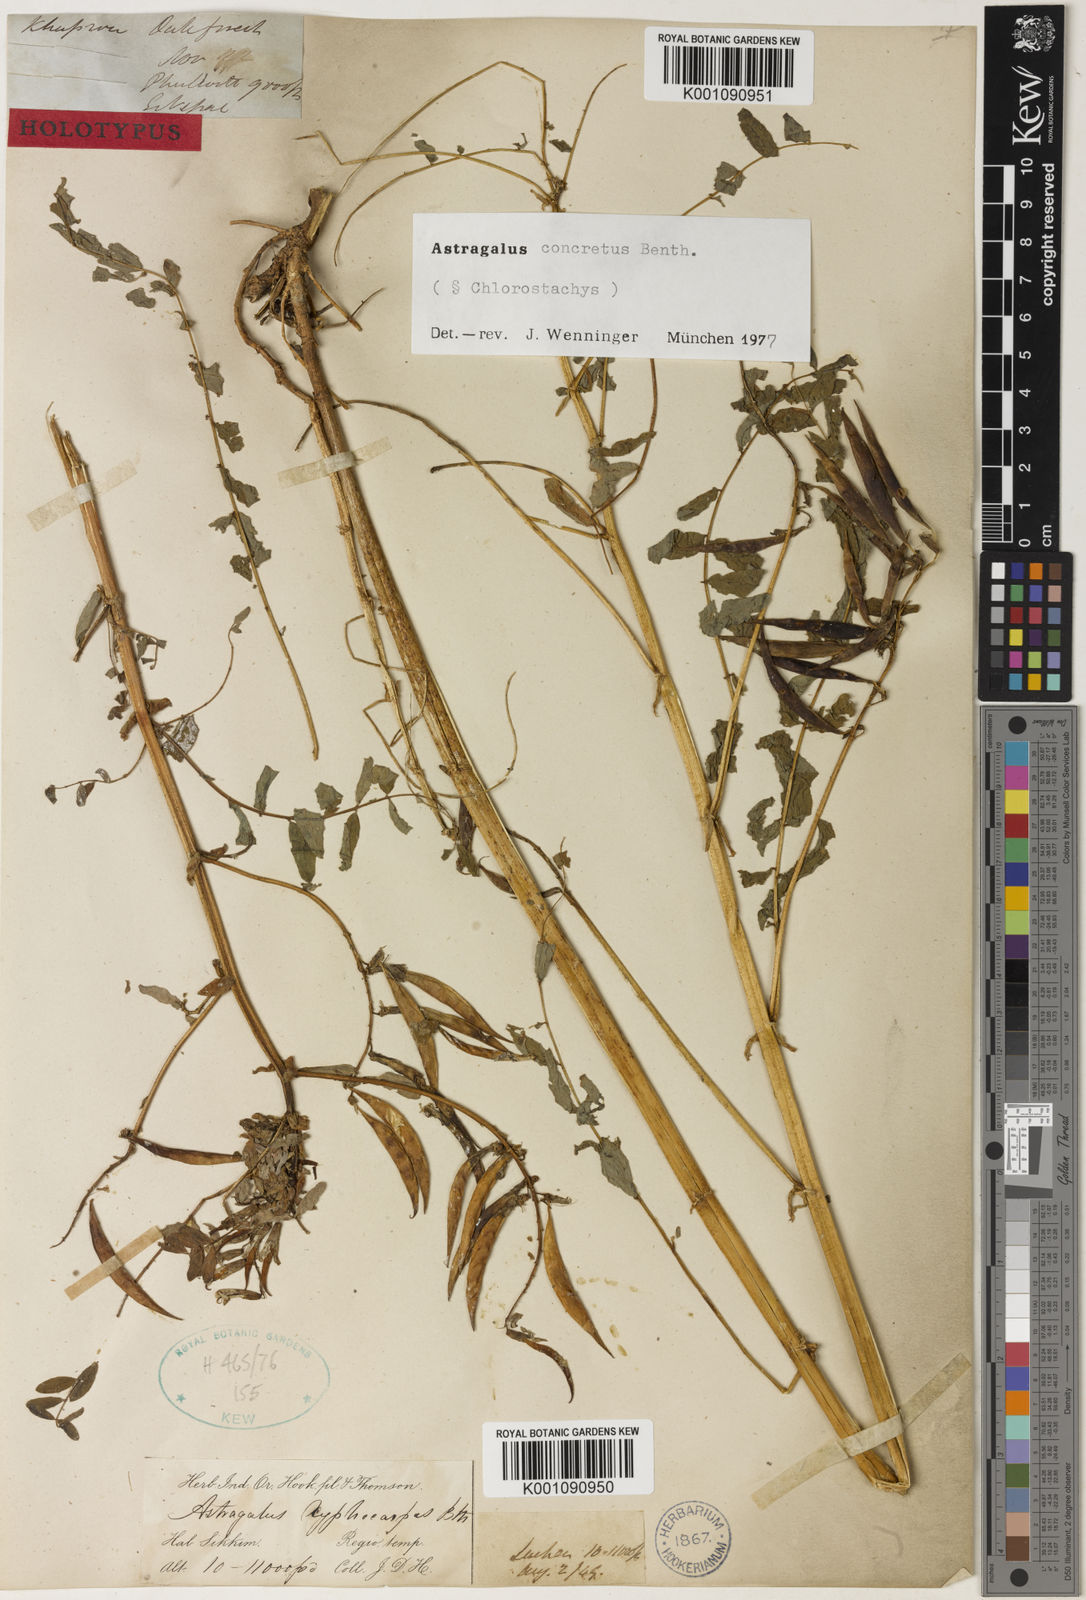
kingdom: Plantae
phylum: Tracheophyta
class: Magnoliopsida
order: Fabales
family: Fabaceae
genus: Astragalus
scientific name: Astragalus
